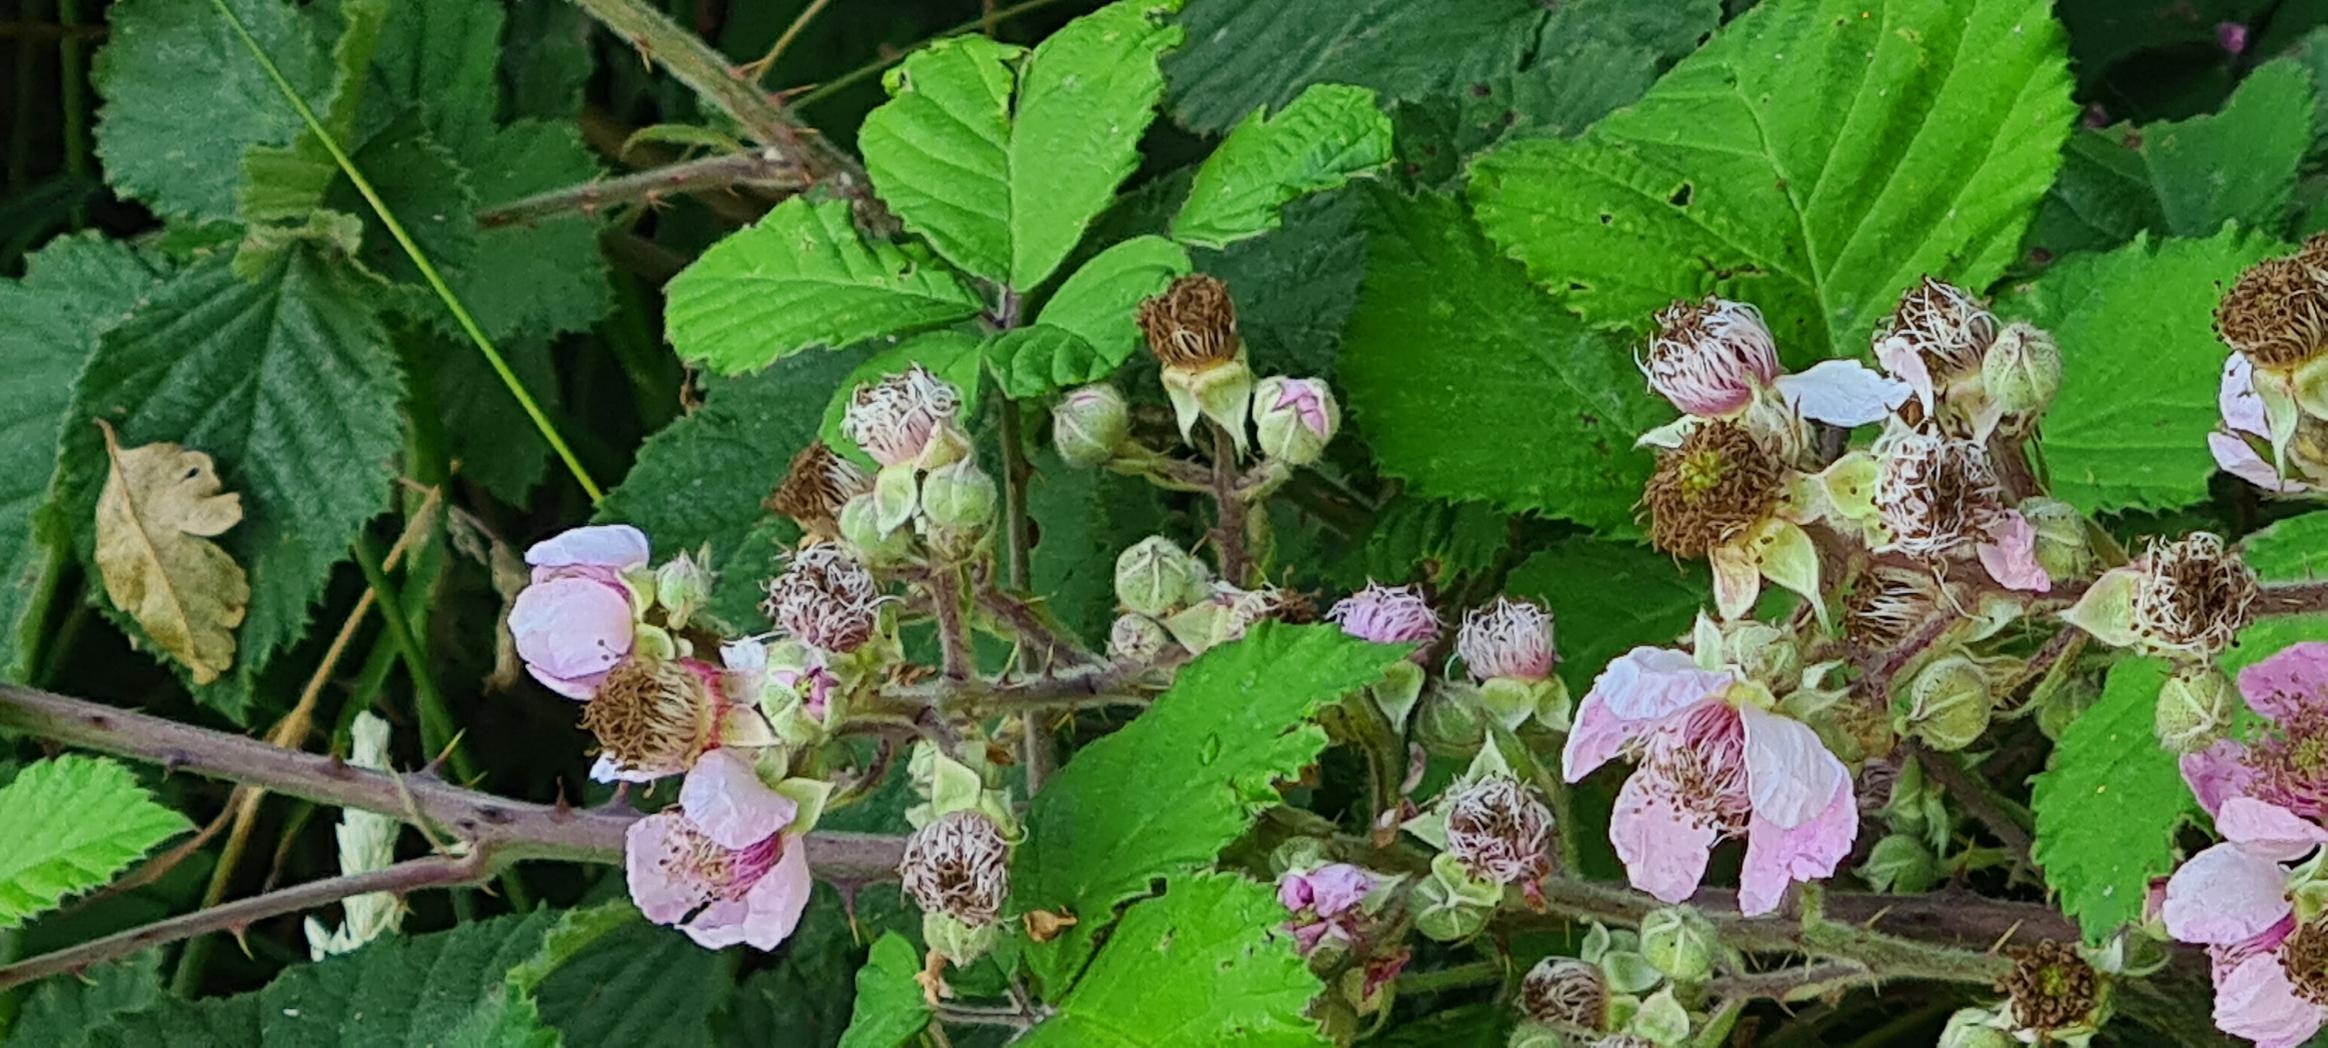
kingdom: Plantae
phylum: Tracheophyta
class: Magnoliopsida
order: Rosales
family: Rosaceae
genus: Rubus
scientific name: Rubus vestitus
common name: Rundbladet brombær
